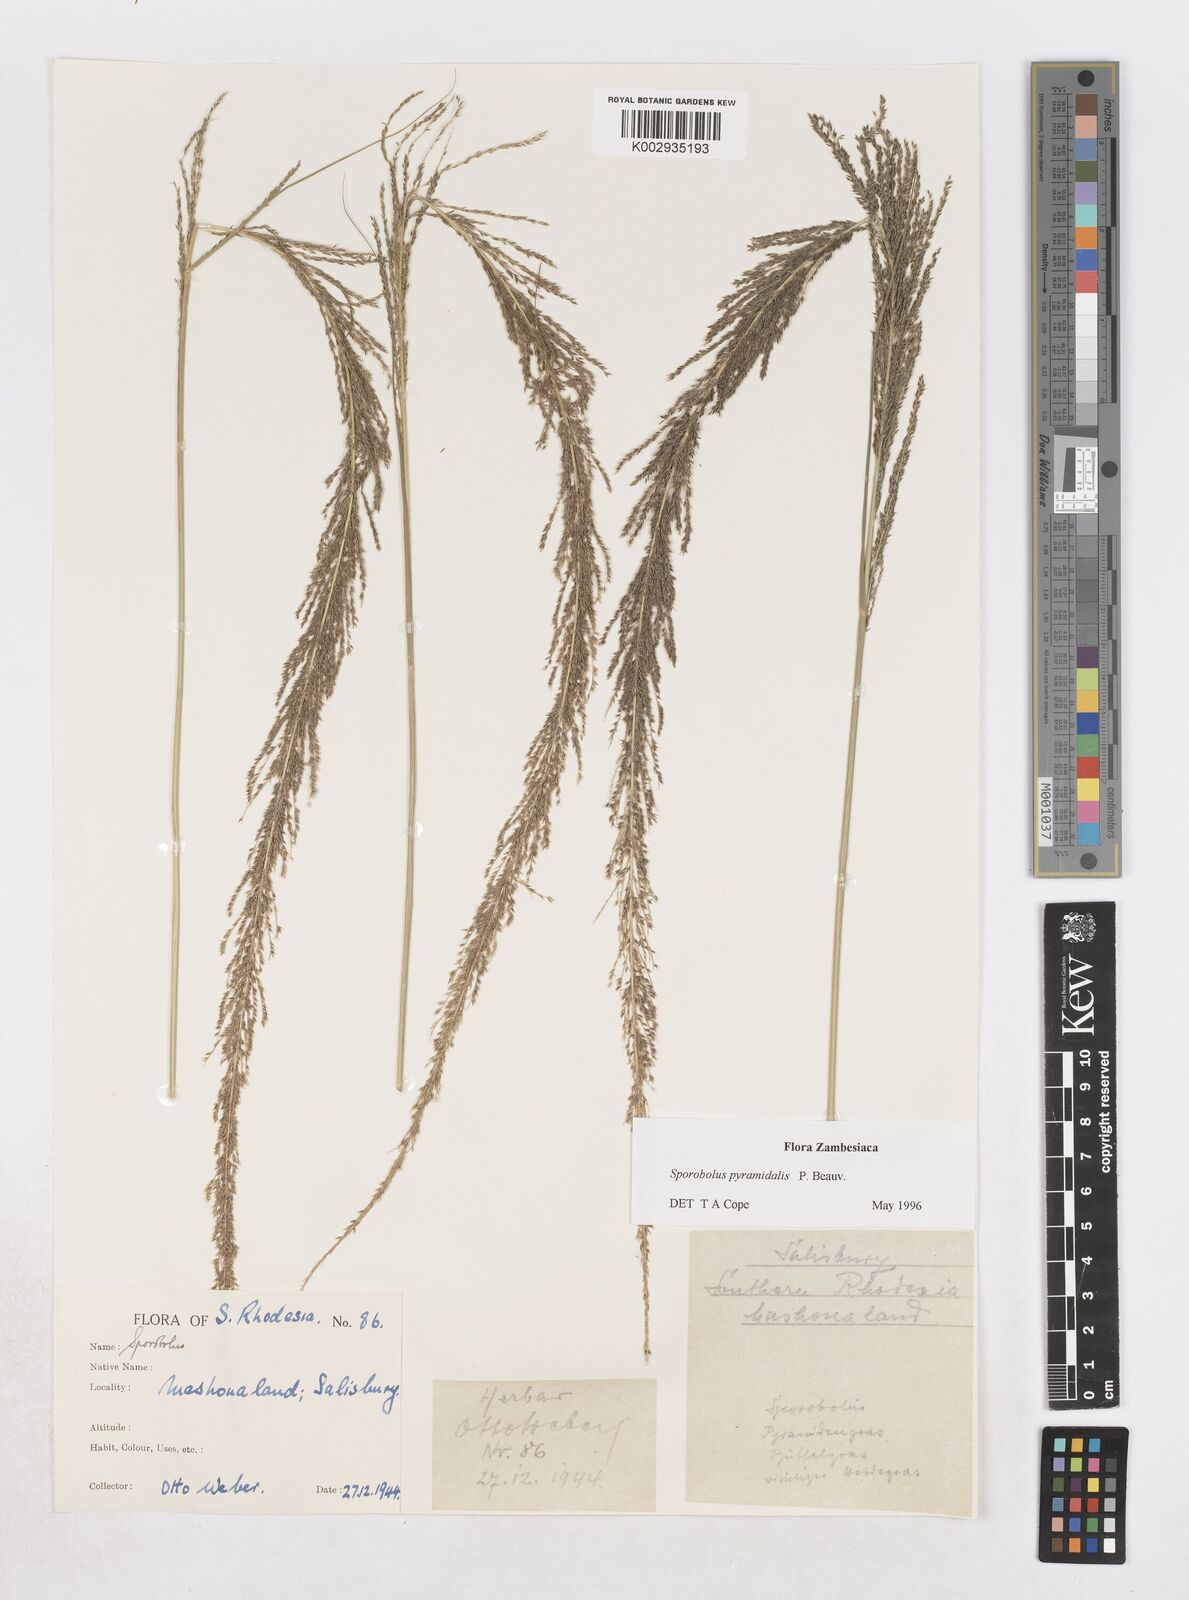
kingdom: Plantae
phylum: Tracheophyta
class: Liliopsida
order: Poales
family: Poaceae
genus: Sporobolus
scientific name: Sporobolus pyramidalis
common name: West indian dropseed
